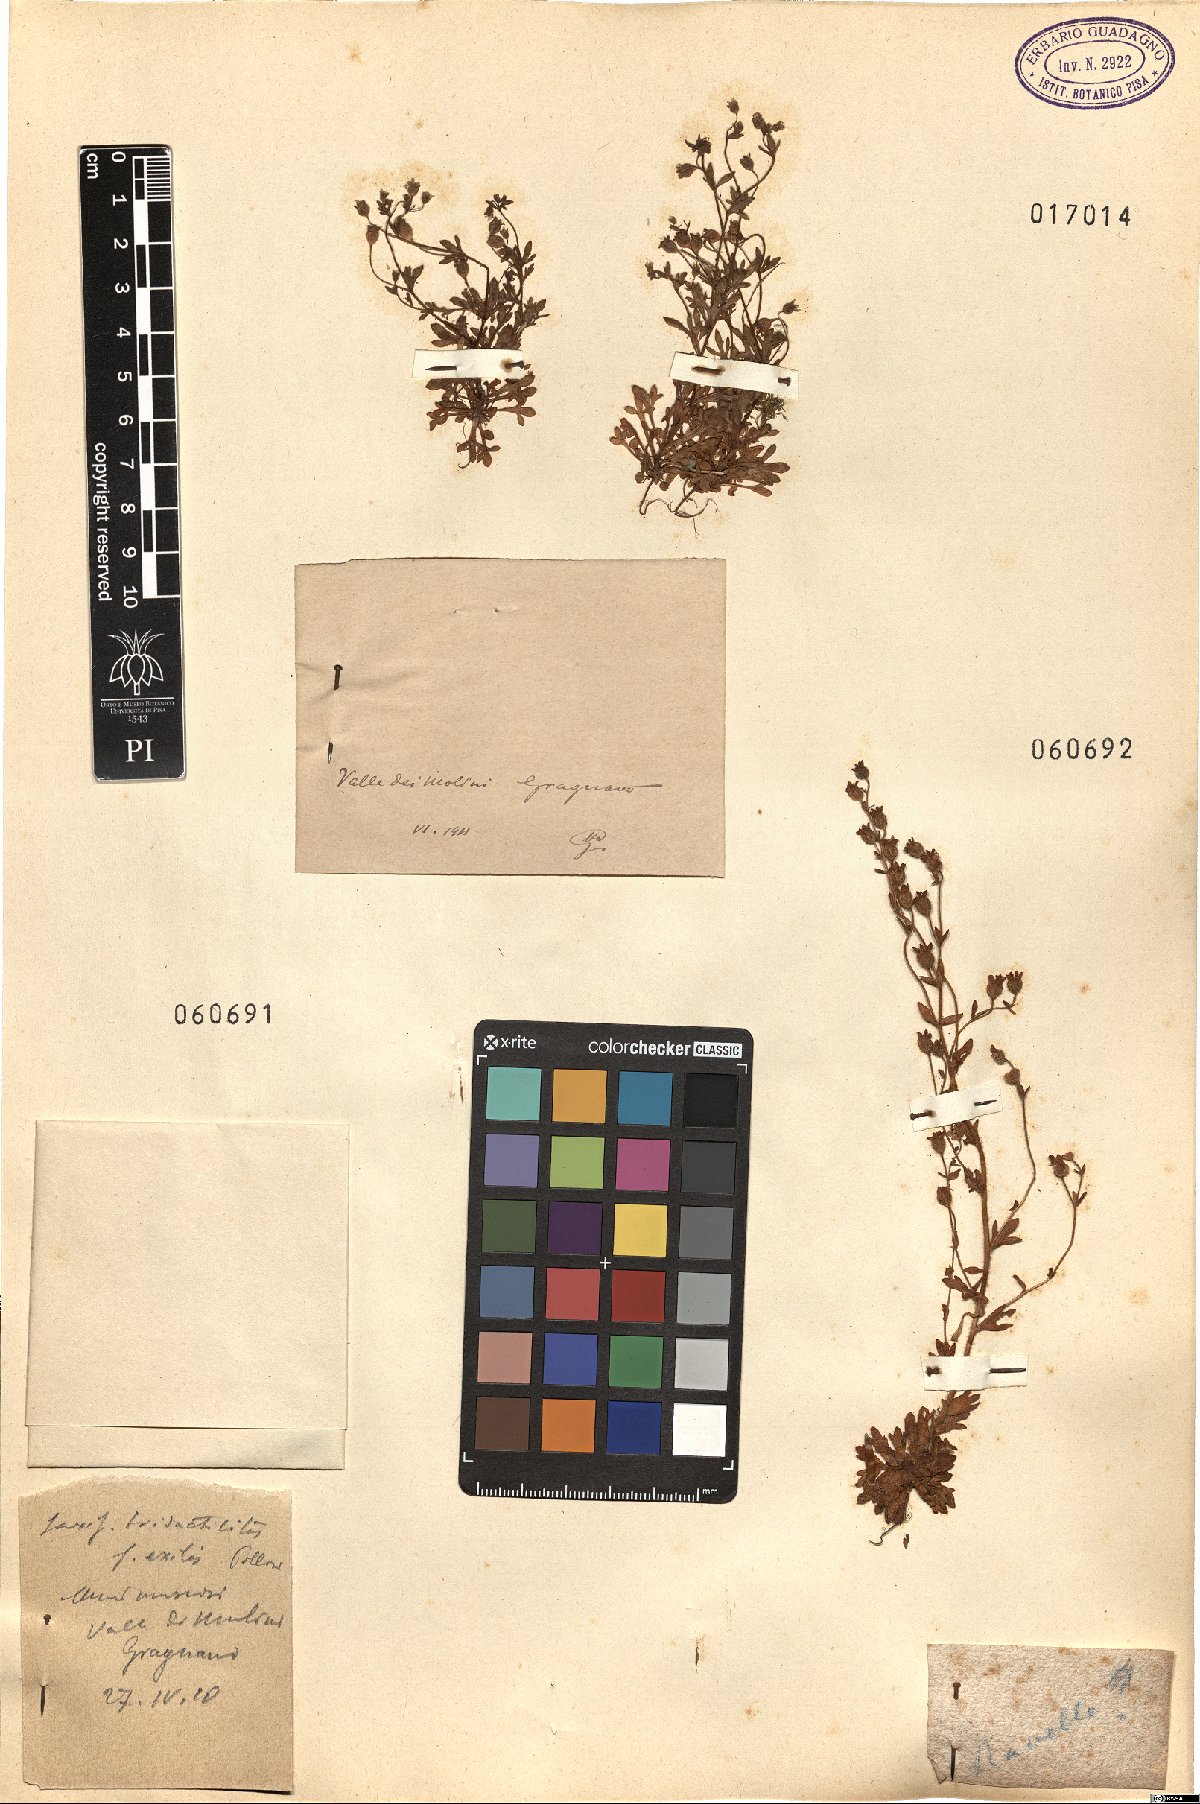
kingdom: Plantae
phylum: Tracheophyta
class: Magnoliopsida
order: Saxifragales
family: Saxifragaceae
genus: Saxifraga
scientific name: Saxifraga
